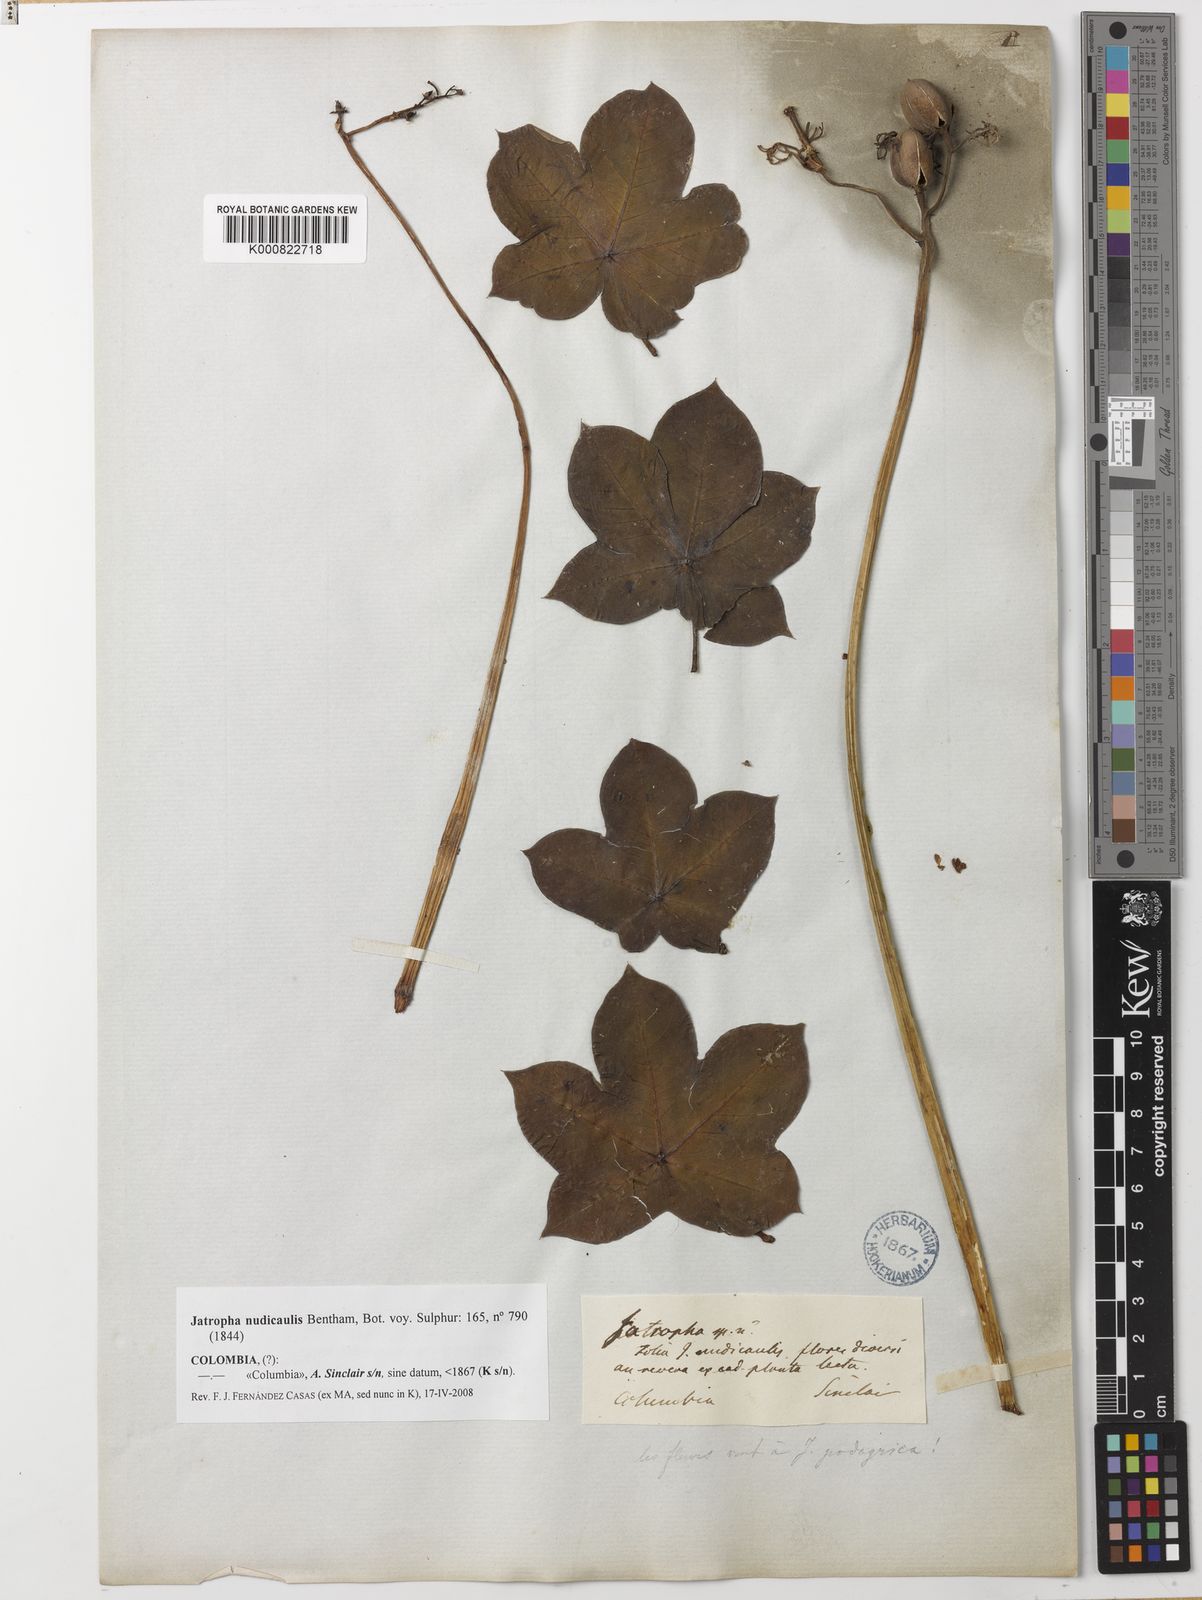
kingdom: Plantae
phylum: Tracheophyta
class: Magnoliopsida
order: Malpighiales
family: Euphorbiaceae
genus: Jatropha
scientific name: Jatropha nudicaulis
